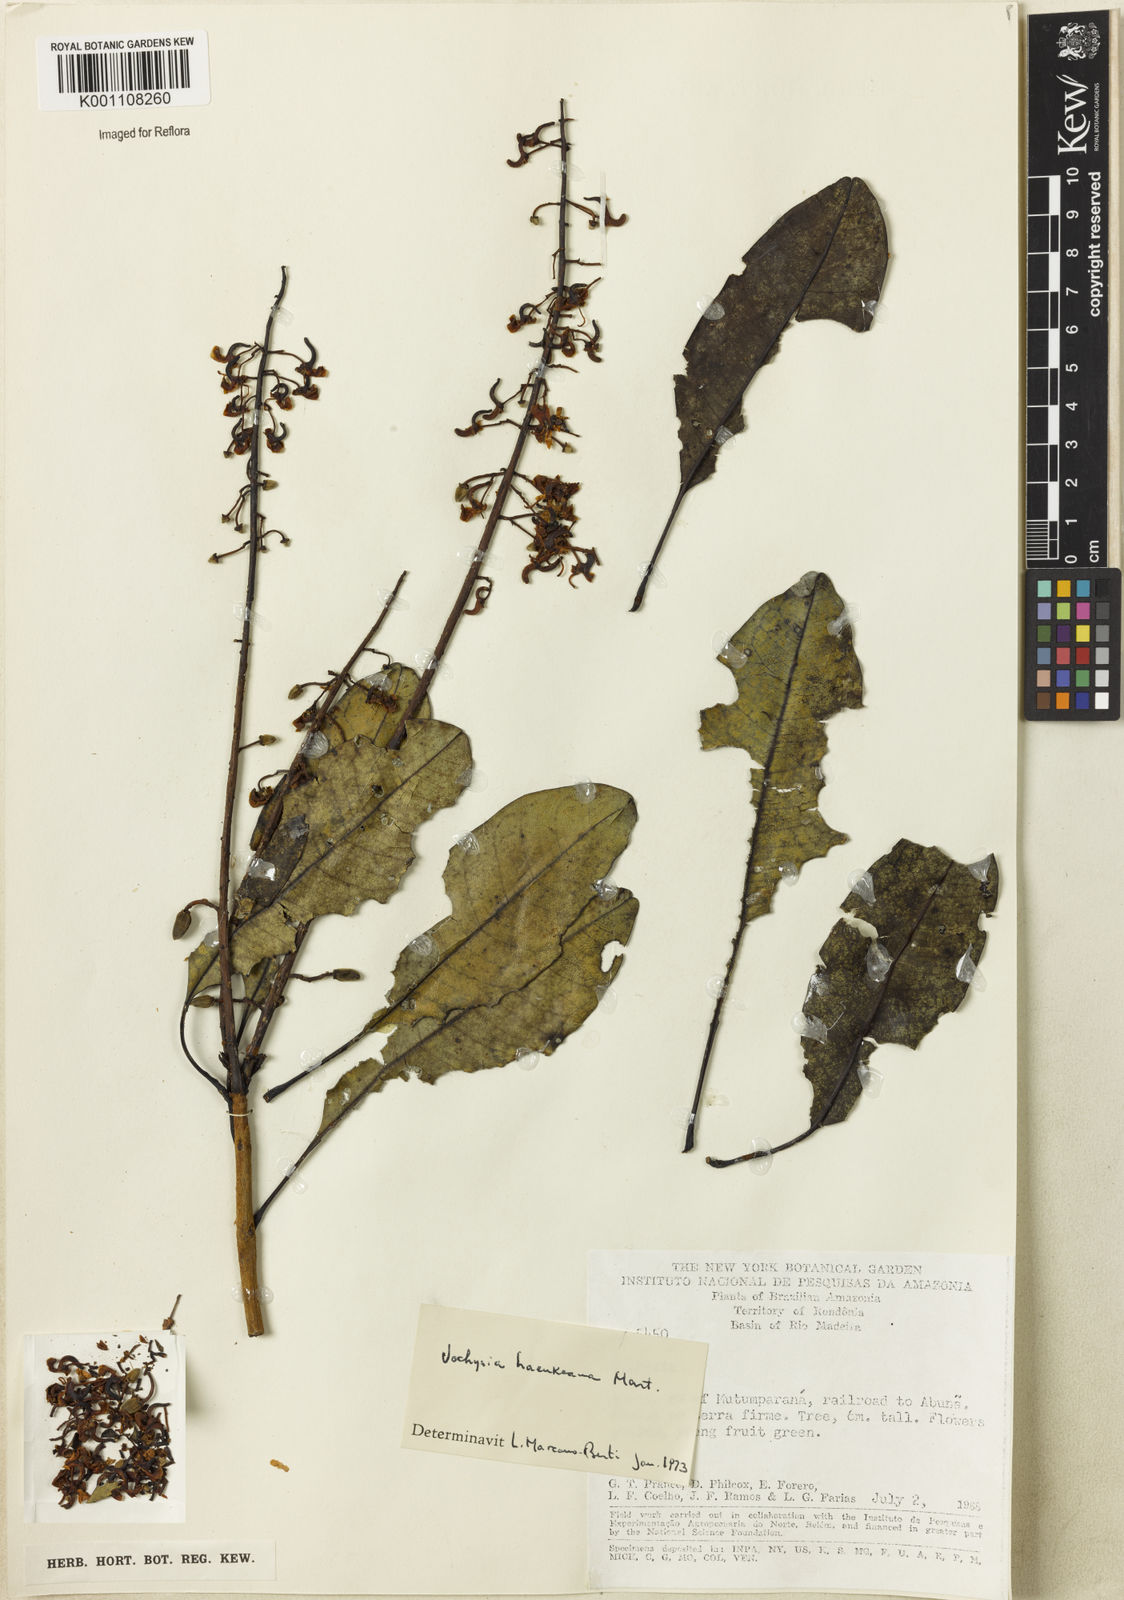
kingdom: Plantae
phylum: Tracheophyta
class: Magnoliopsida
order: Myrtales
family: Vochysiaceae
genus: Vochysia
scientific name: Vochysia haenkeana
